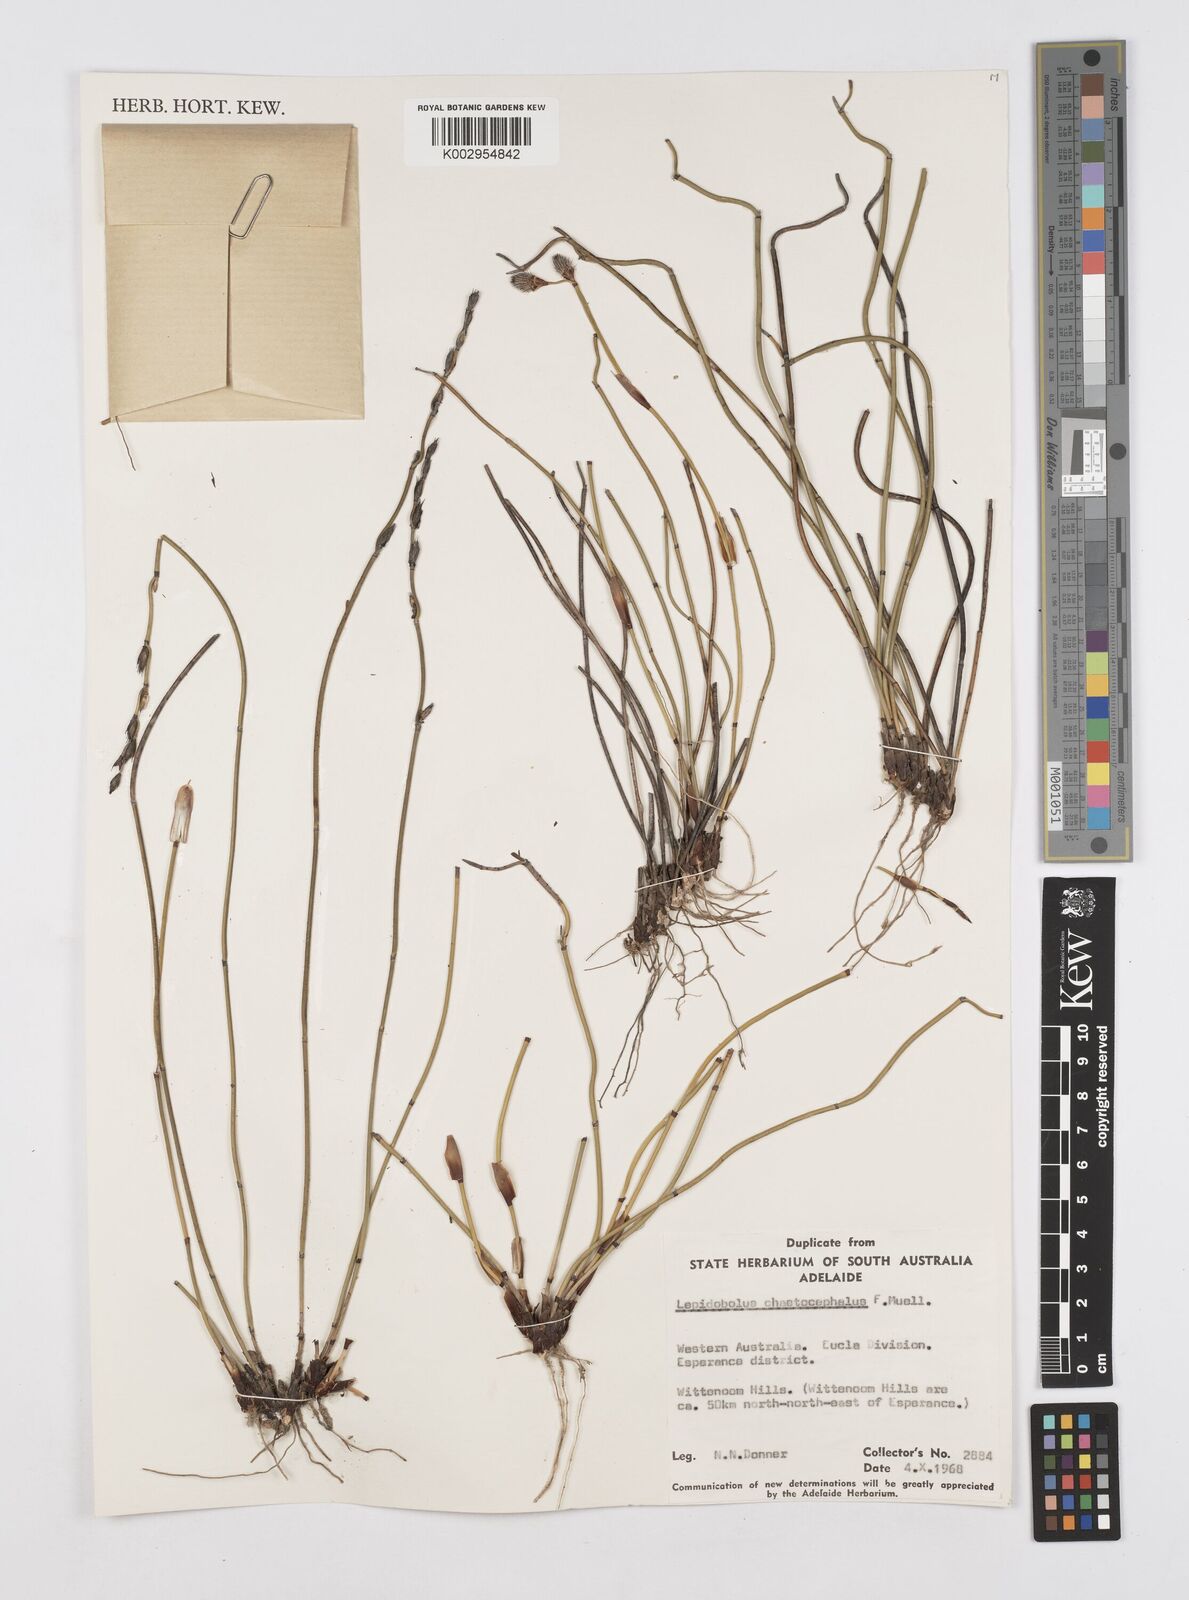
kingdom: Plantae
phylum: Tracheophyta
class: Liliopsida
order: Poales
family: Restionaceae
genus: Lepidobolus
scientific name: Lepidobolus chaetocephalus
